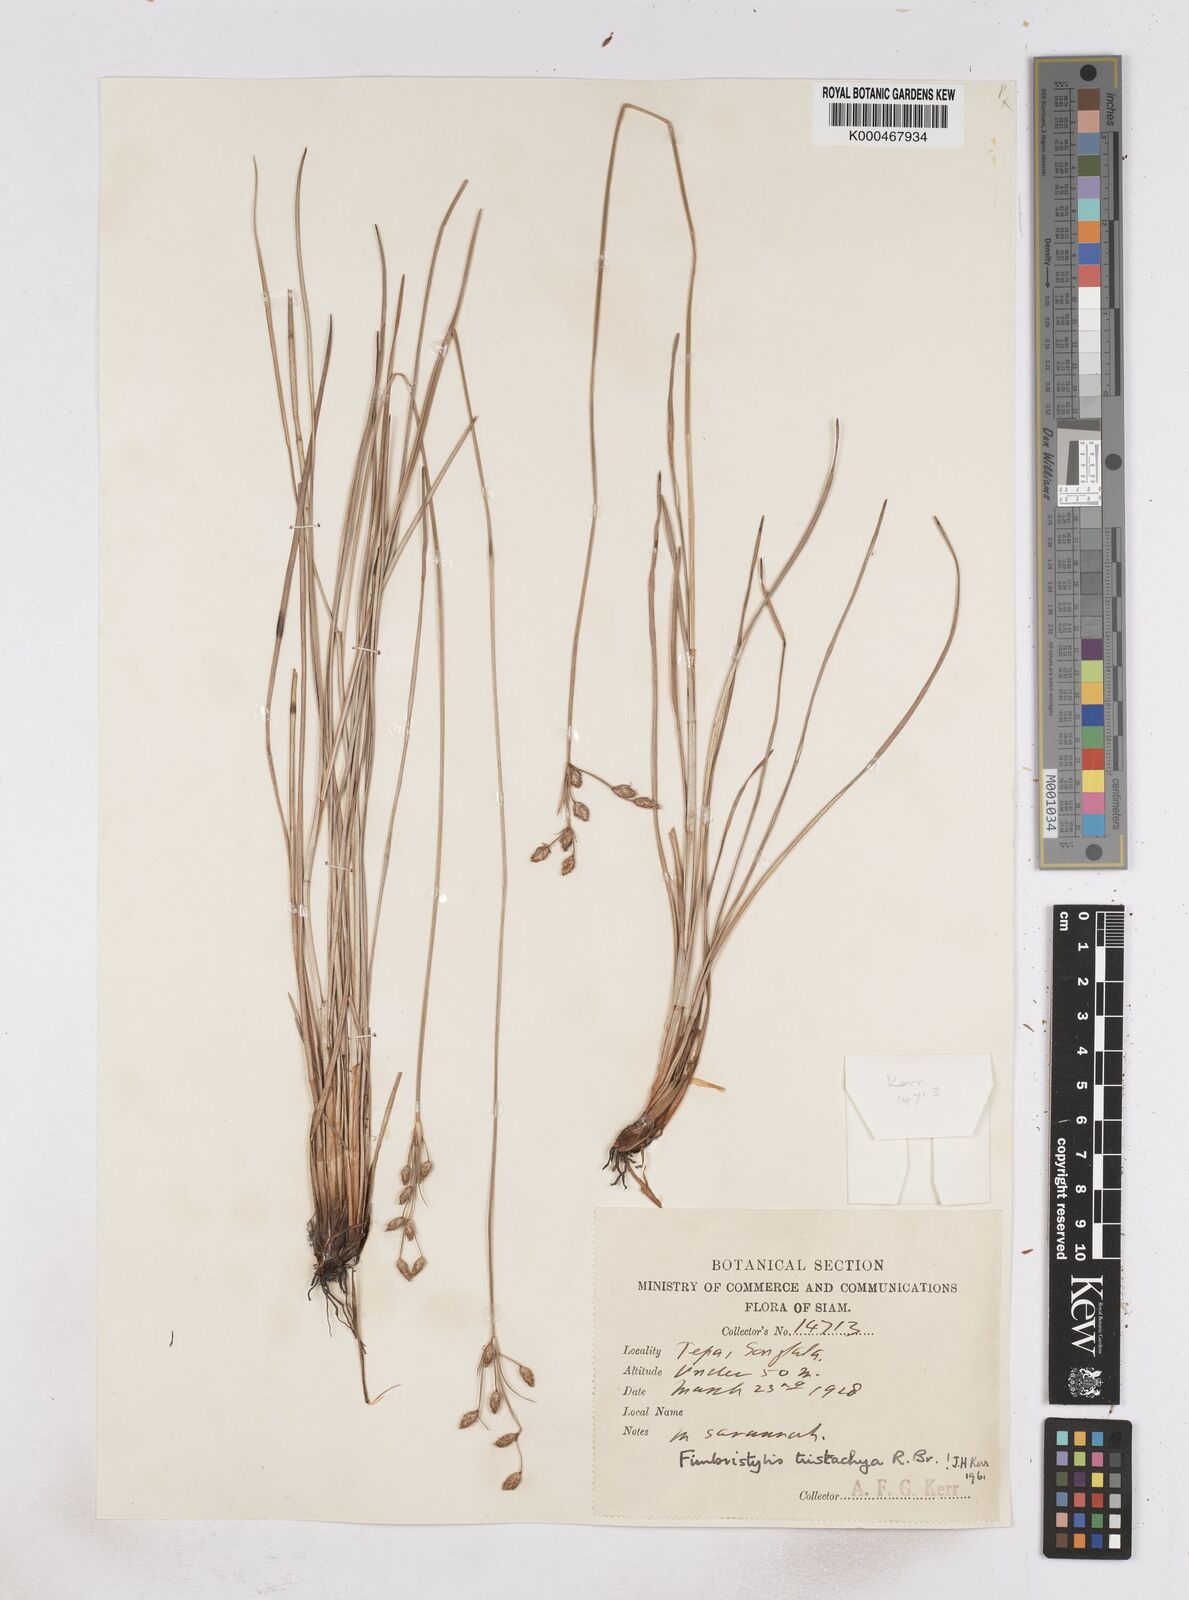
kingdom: Plantae
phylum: Tracheophyta
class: Liliopsida
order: Poales
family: Cyperaceae
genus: Fimbristylis
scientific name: Fimbristylis tristachya
